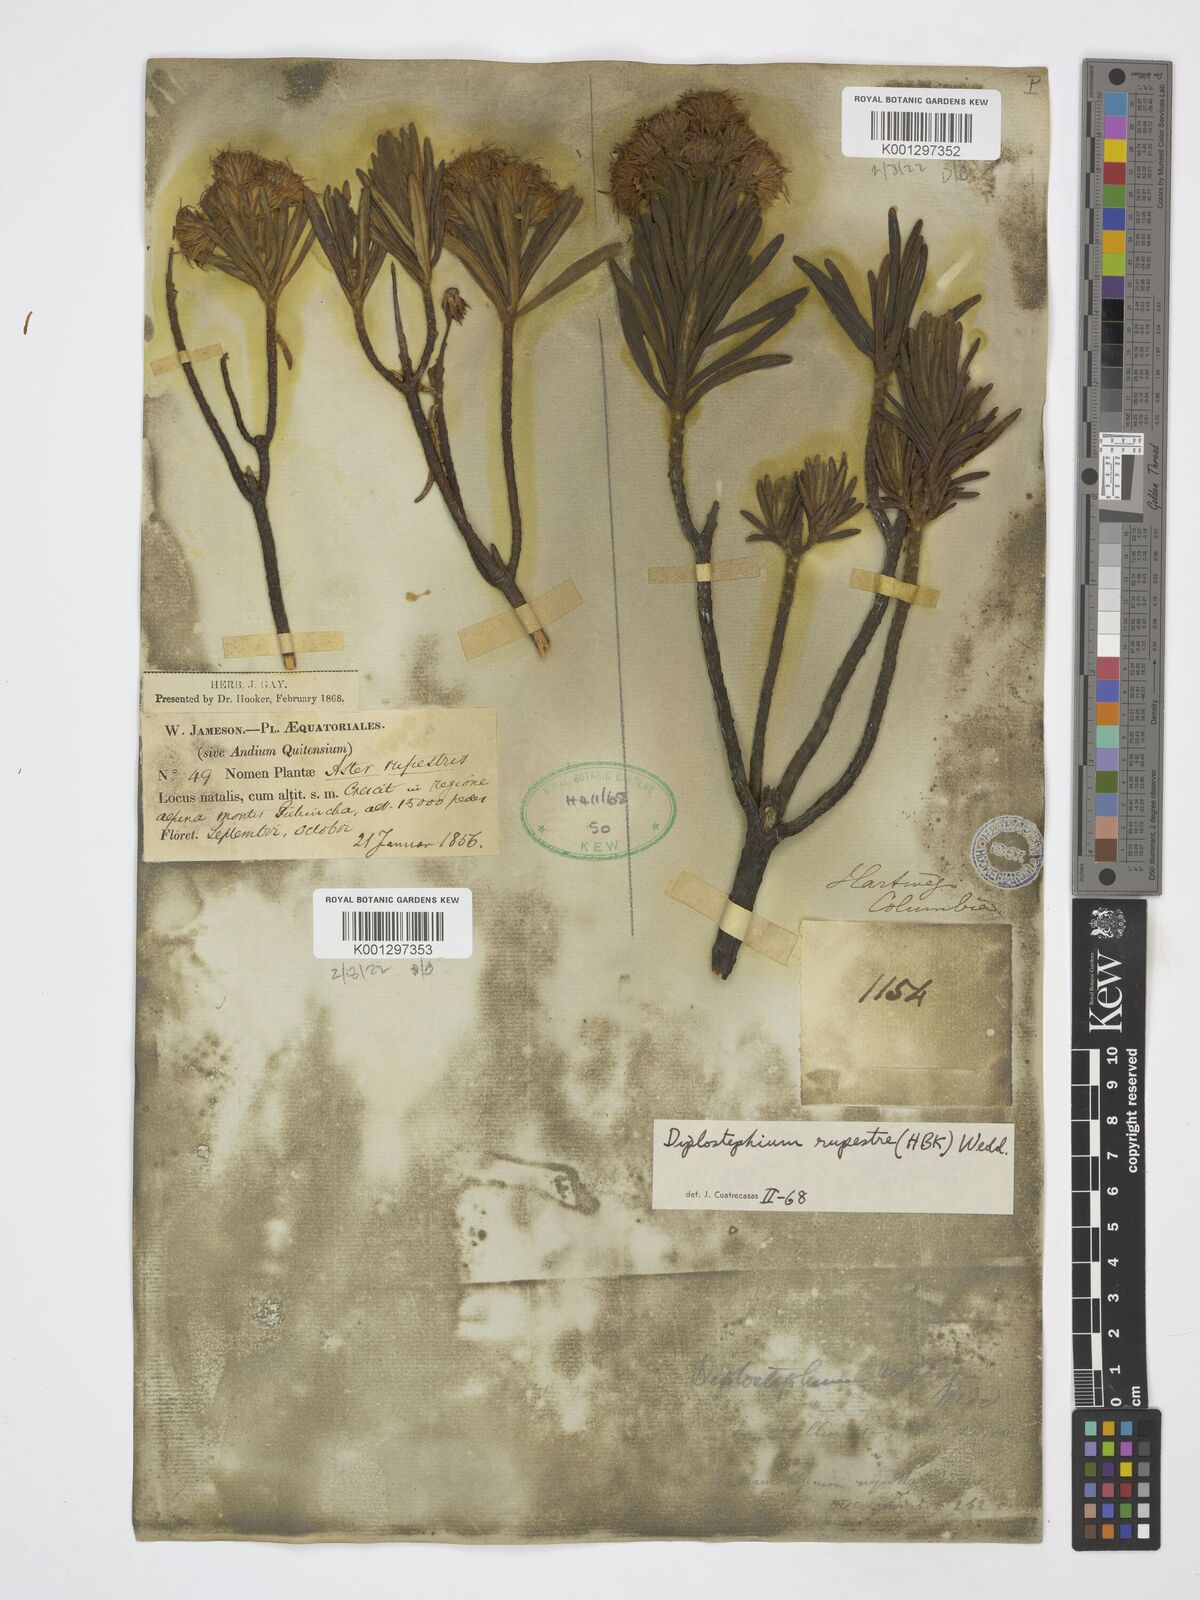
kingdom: Plantae
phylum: Tracheophyta
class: Magnoliopsida
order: Asterales
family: Asteraceae
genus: Linochilus
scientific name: Linochilus rupestris
